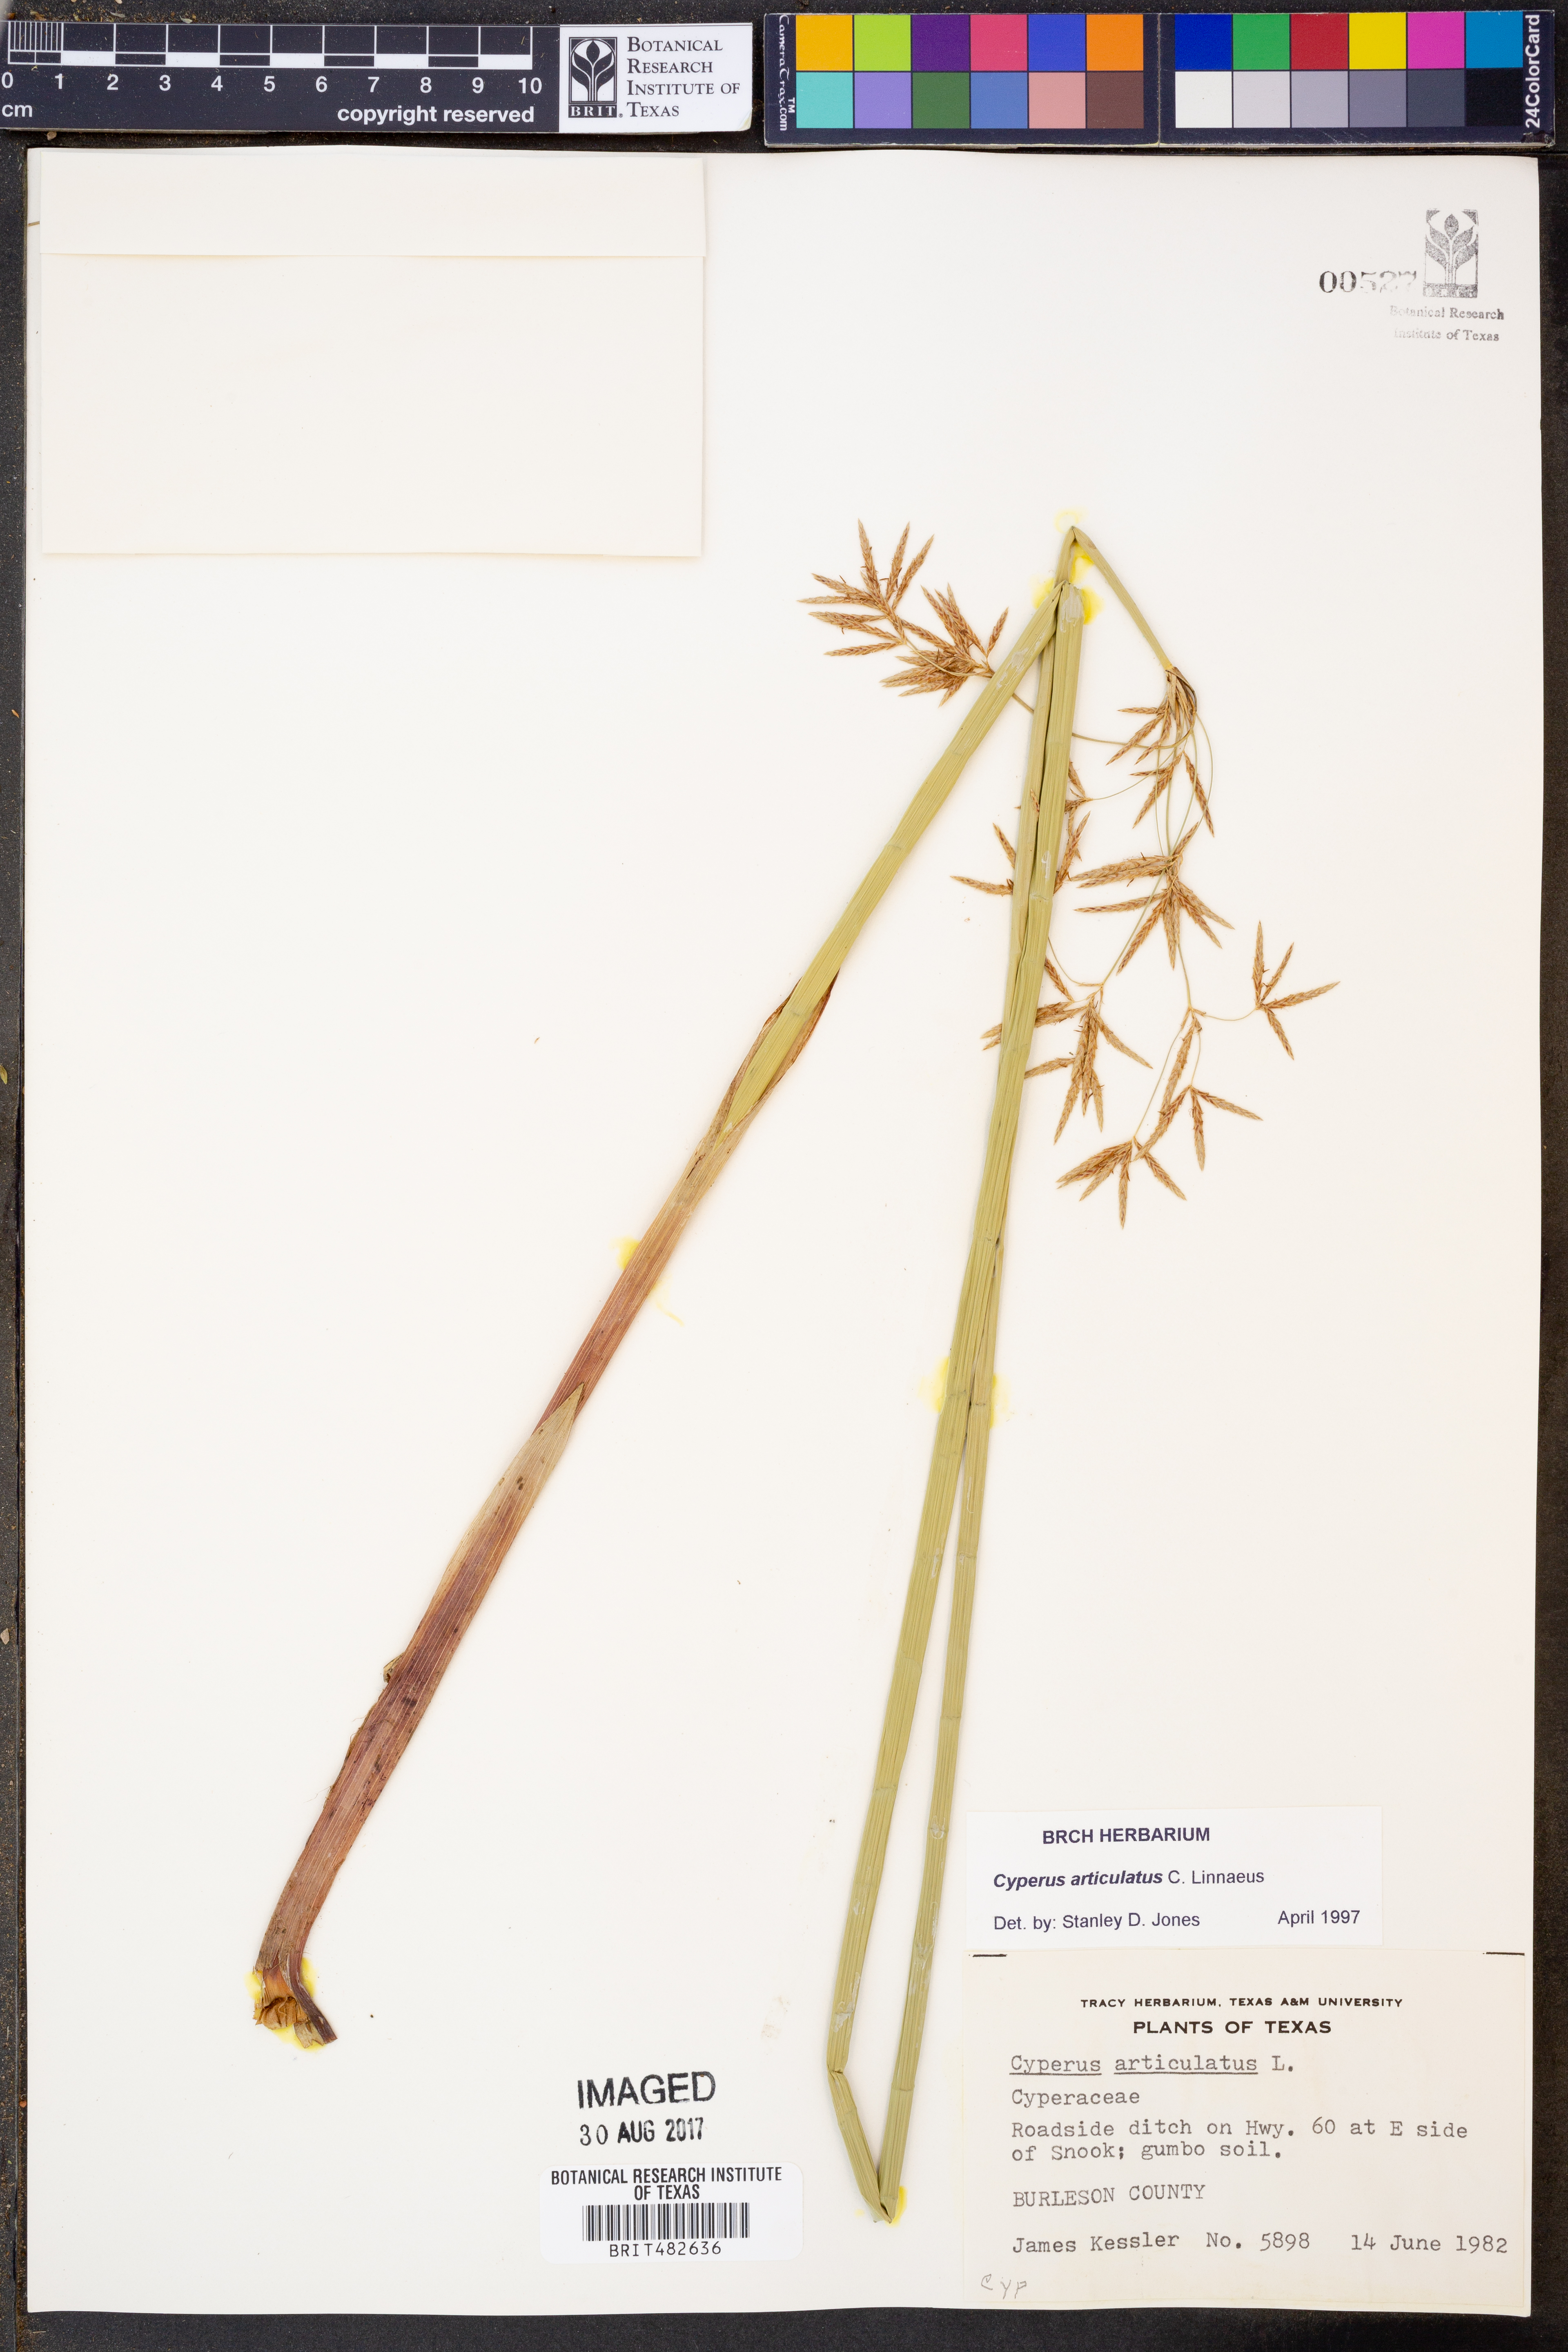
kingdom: Plantae
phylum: Tracheophyta
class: Liliopsida
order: Poales
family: Cyperaceae
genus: Cyperus
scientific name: Cyperus articulatus
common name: Jointed flatsedge
